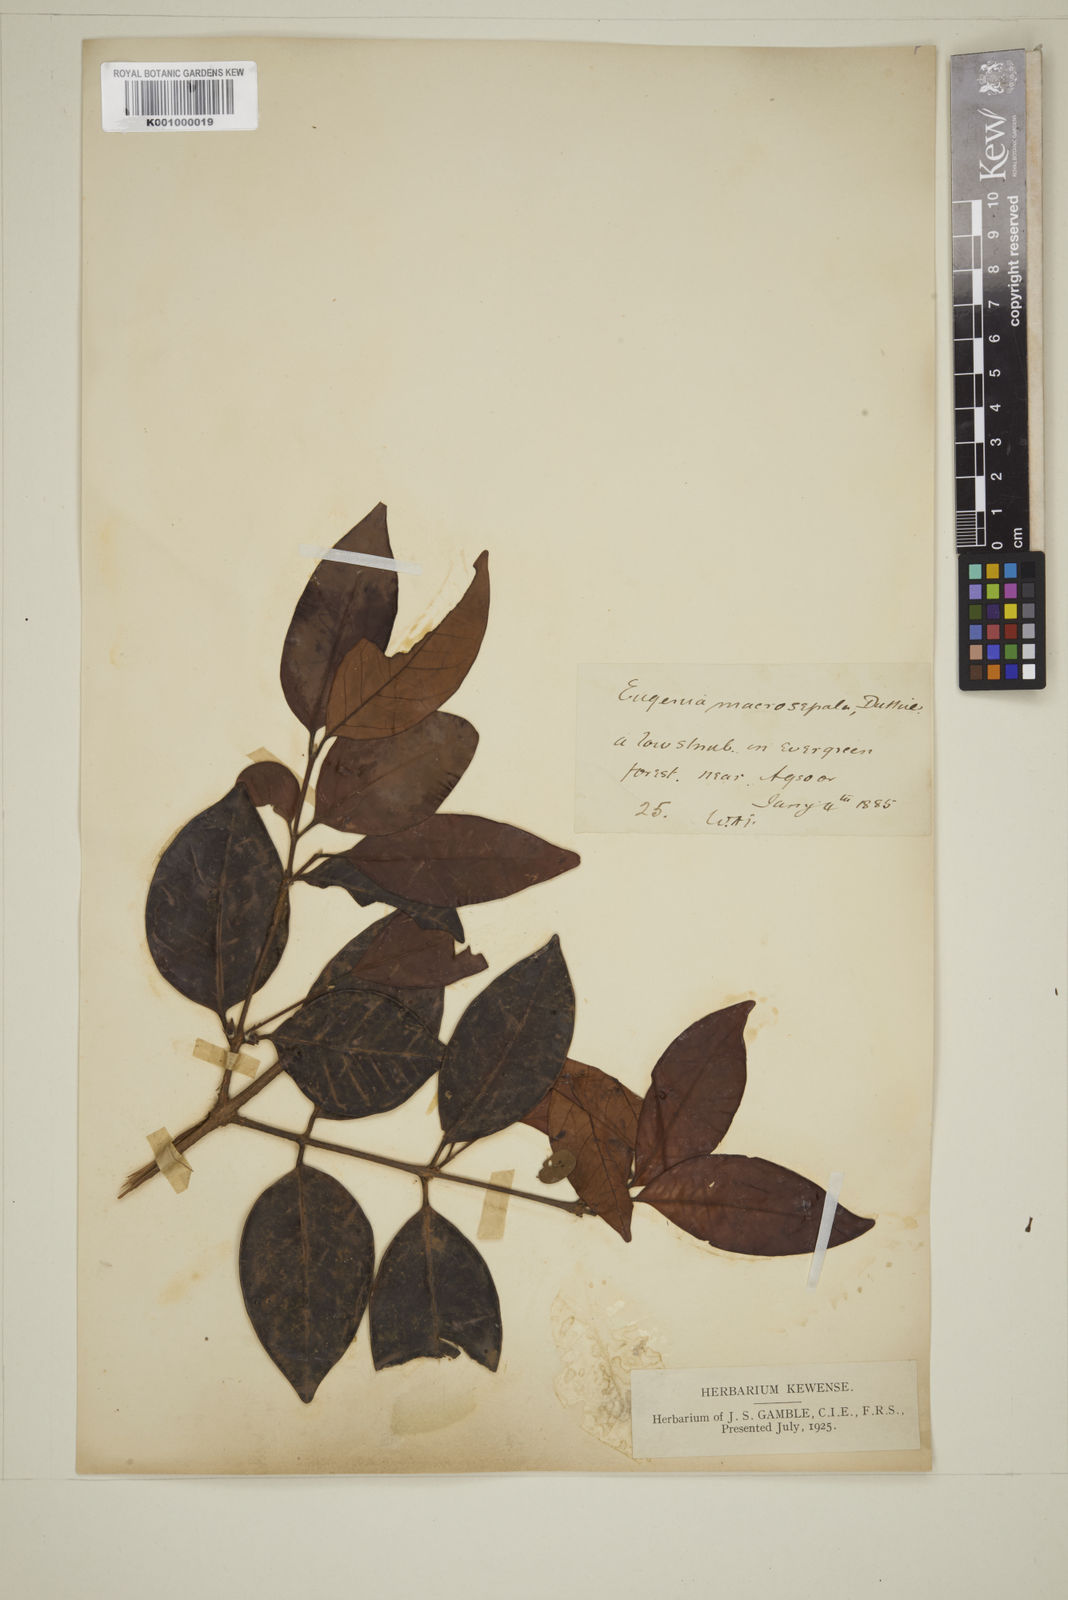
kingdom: Plantae
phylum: Tracheophyta
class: Magnoliopsida
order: Myrtales
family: Myrtaceae
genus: Eugenia
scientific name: Eugenia macrosepala
